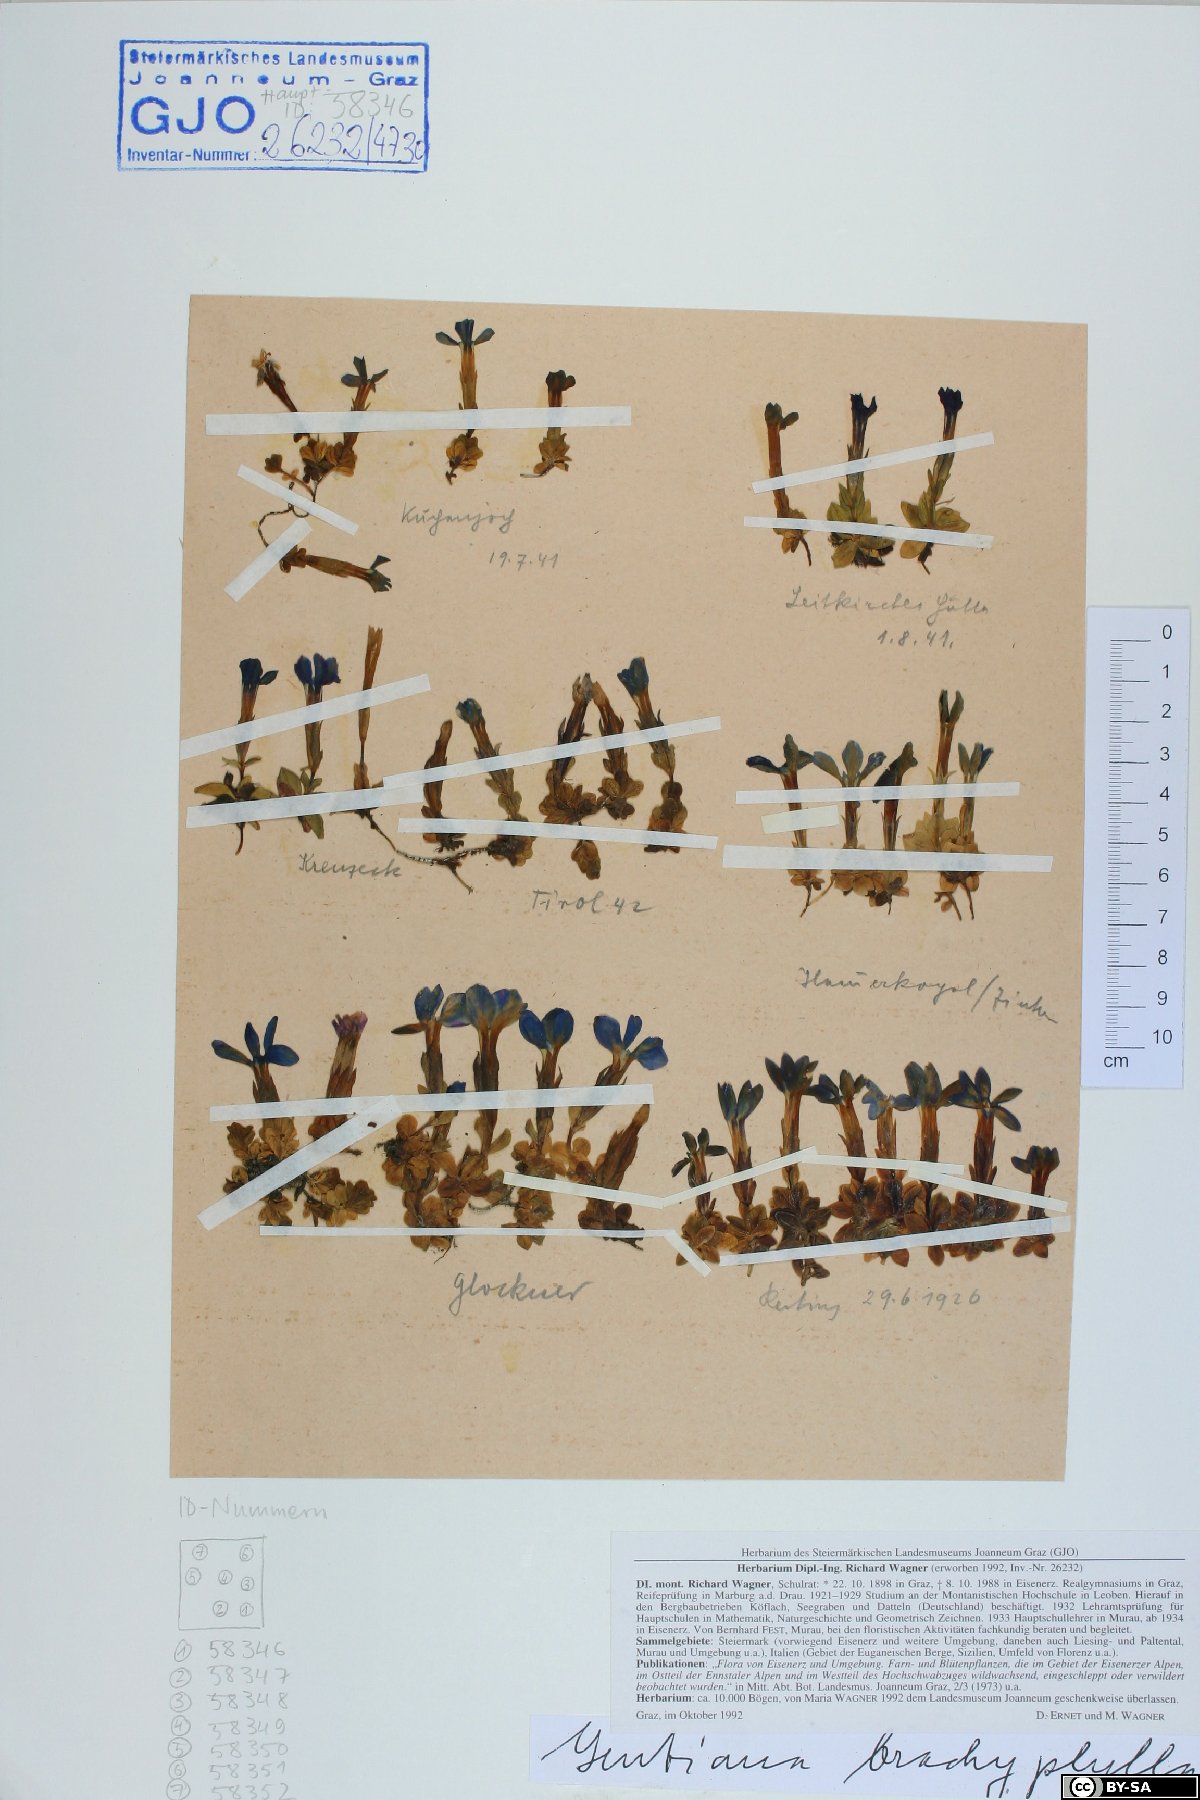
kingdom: Plantae
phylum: Tracheophyta
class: Magnoliopsida
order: Gentianales
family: Gentianaceae
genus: Gentiana
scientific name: Gentiana brachyphylla
